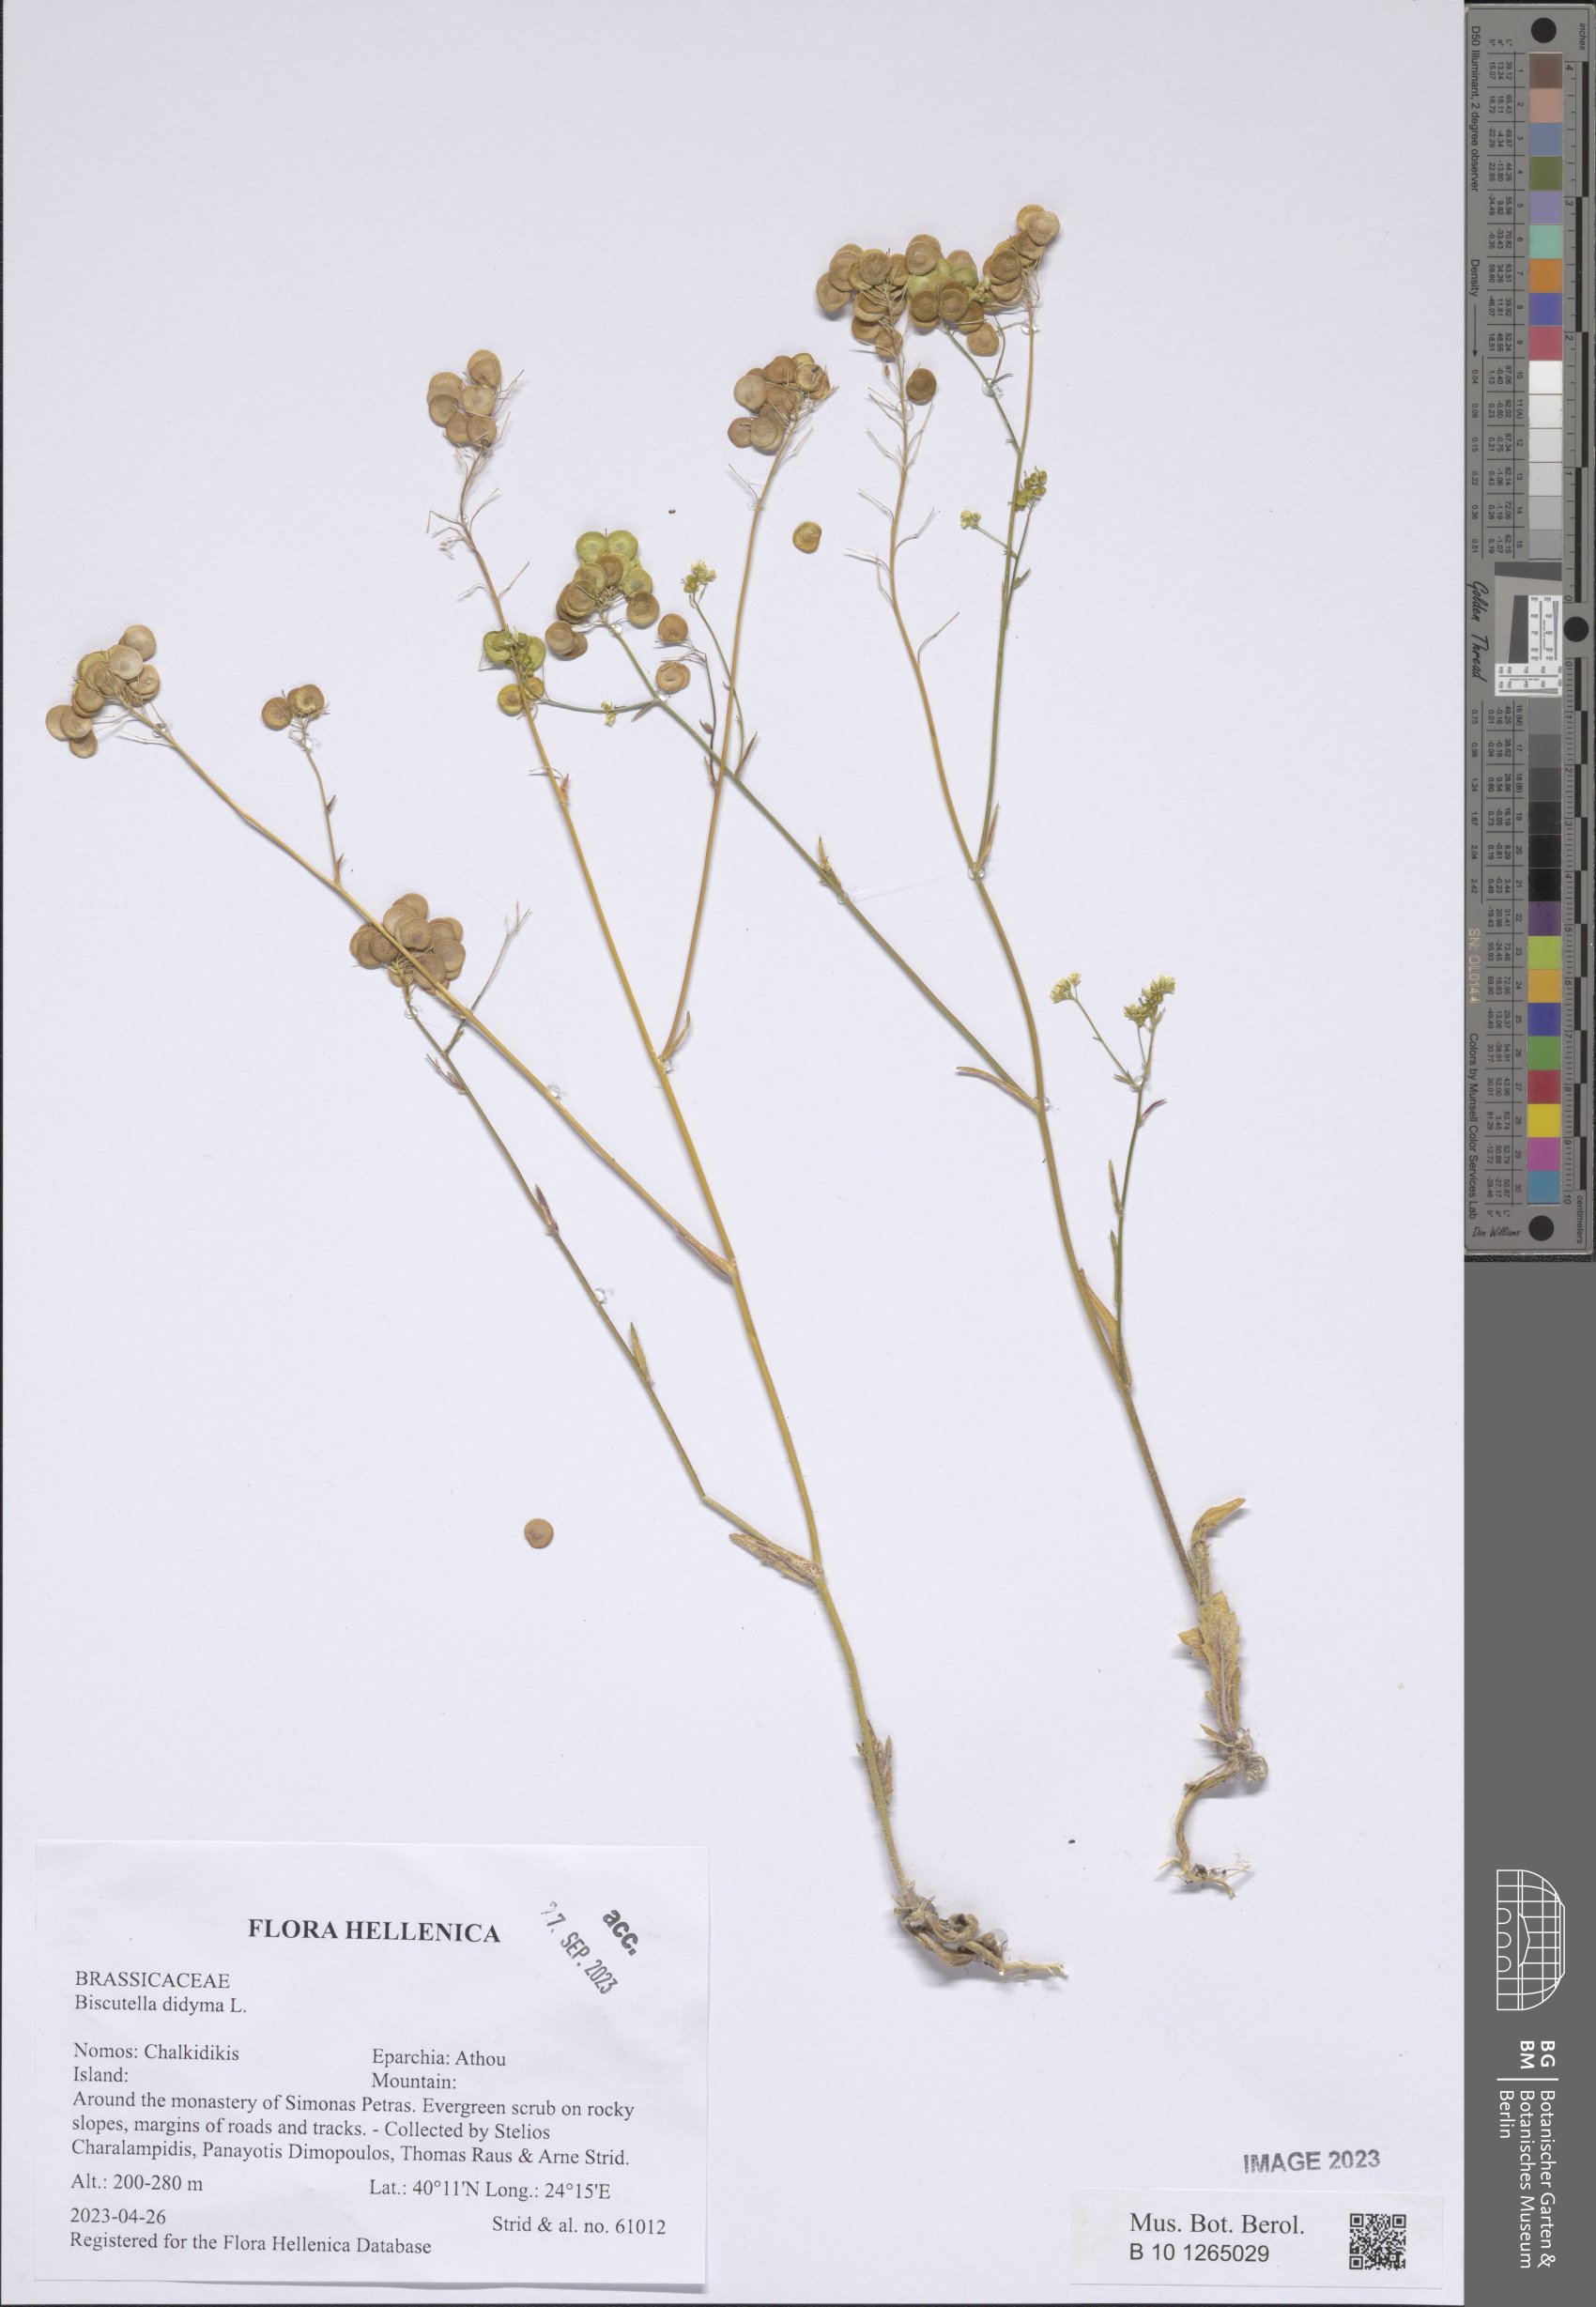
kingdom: Plantae
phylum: Tracheophyta
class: Magnoliopsida
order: Brassicales
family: Brassicaceae
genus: Biscutella
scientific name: Biscutella didyma
